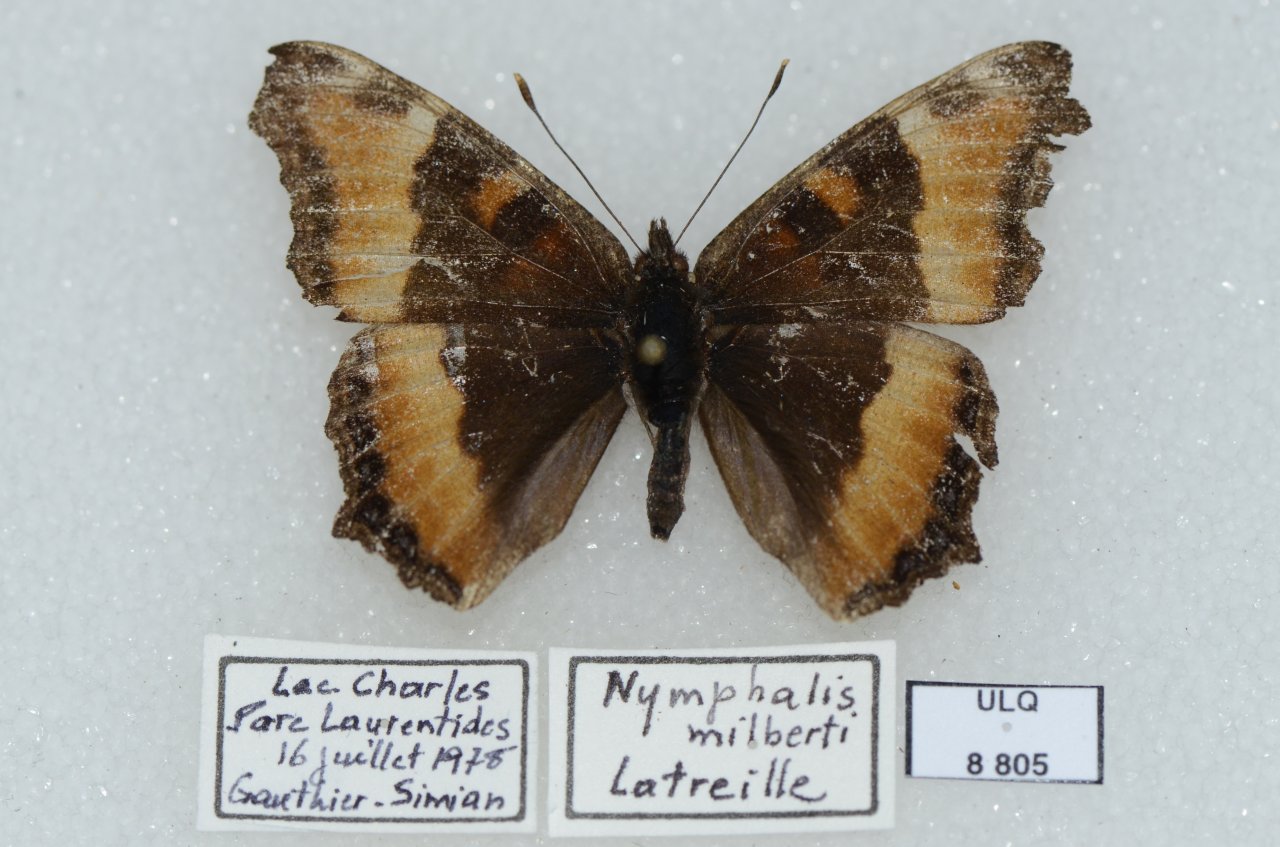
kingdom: Animalia
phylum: Arthropoda
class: Insecta
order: Lepidoptera
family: Nymphalidae
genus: Aglais
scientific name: Aglais milberti
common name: Milbert's Tortoiseshell
